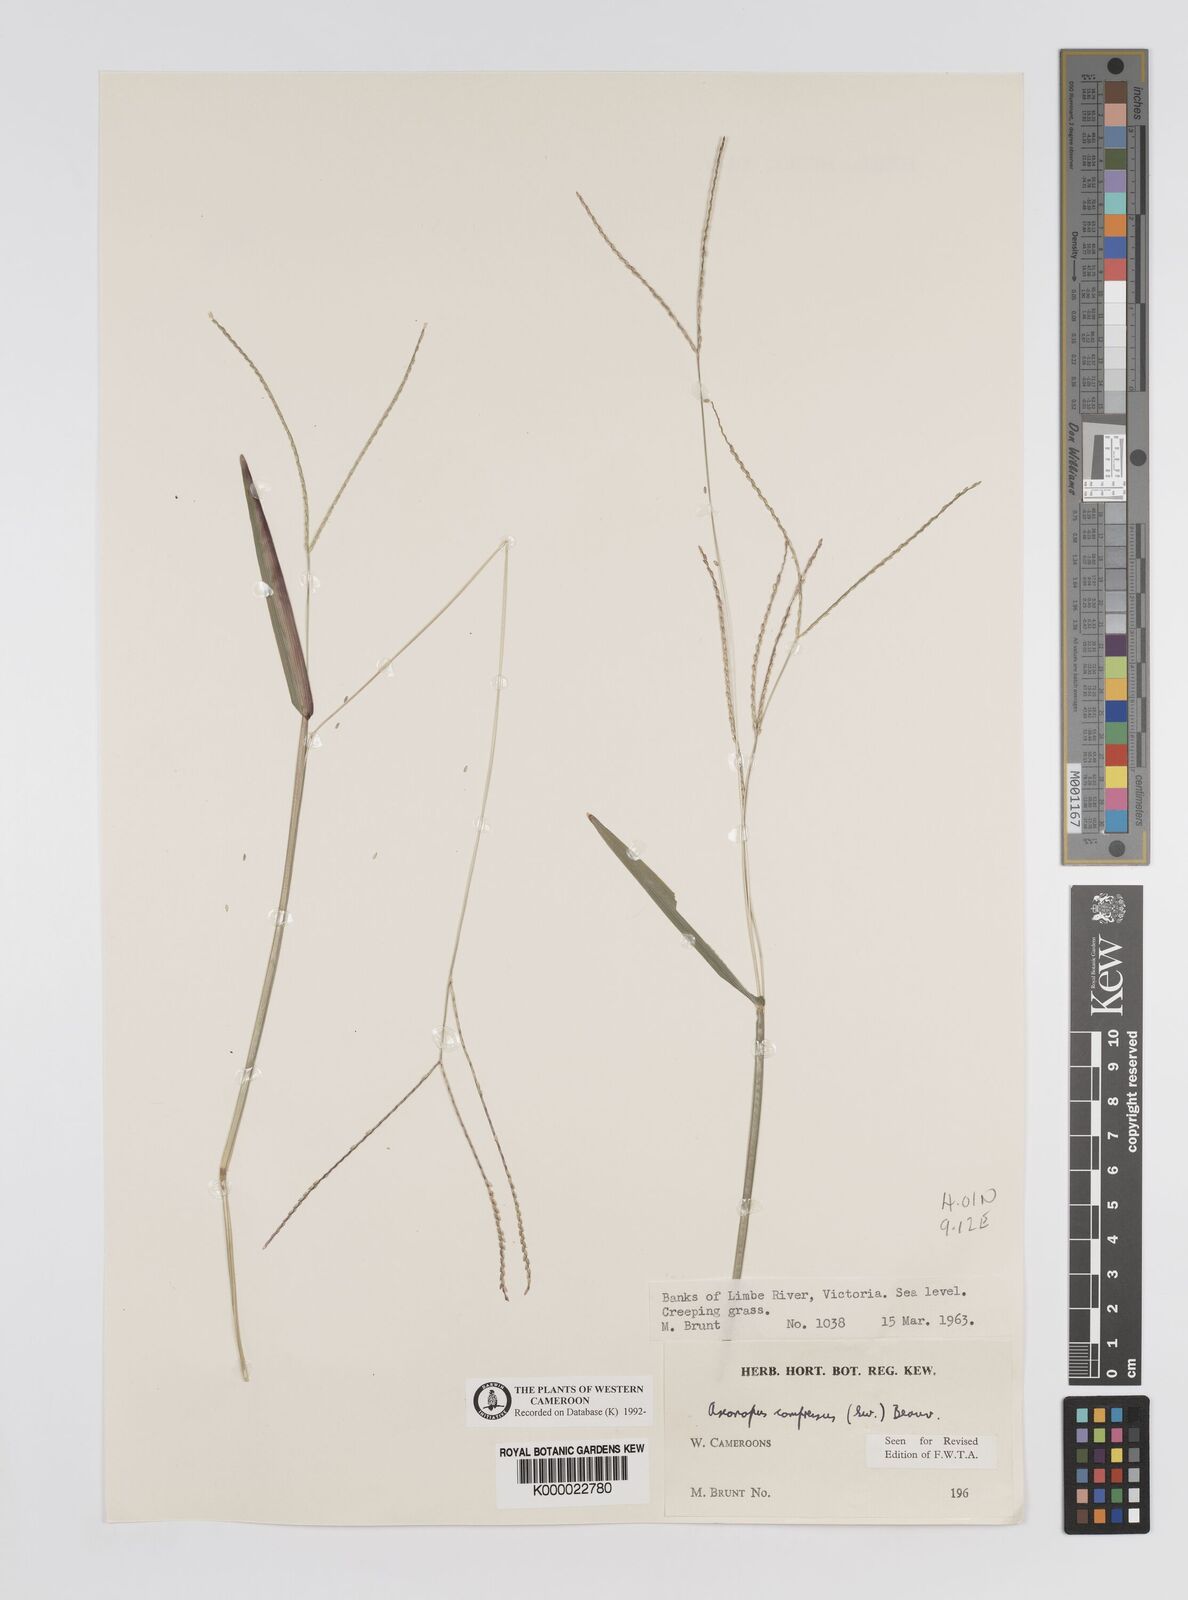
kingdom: Plantae
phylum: Tracheophyta
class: Liliopsida
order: Poales
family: Poaceae
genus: Axonopus
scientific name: Axonopus compressus
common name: American carpet grass
